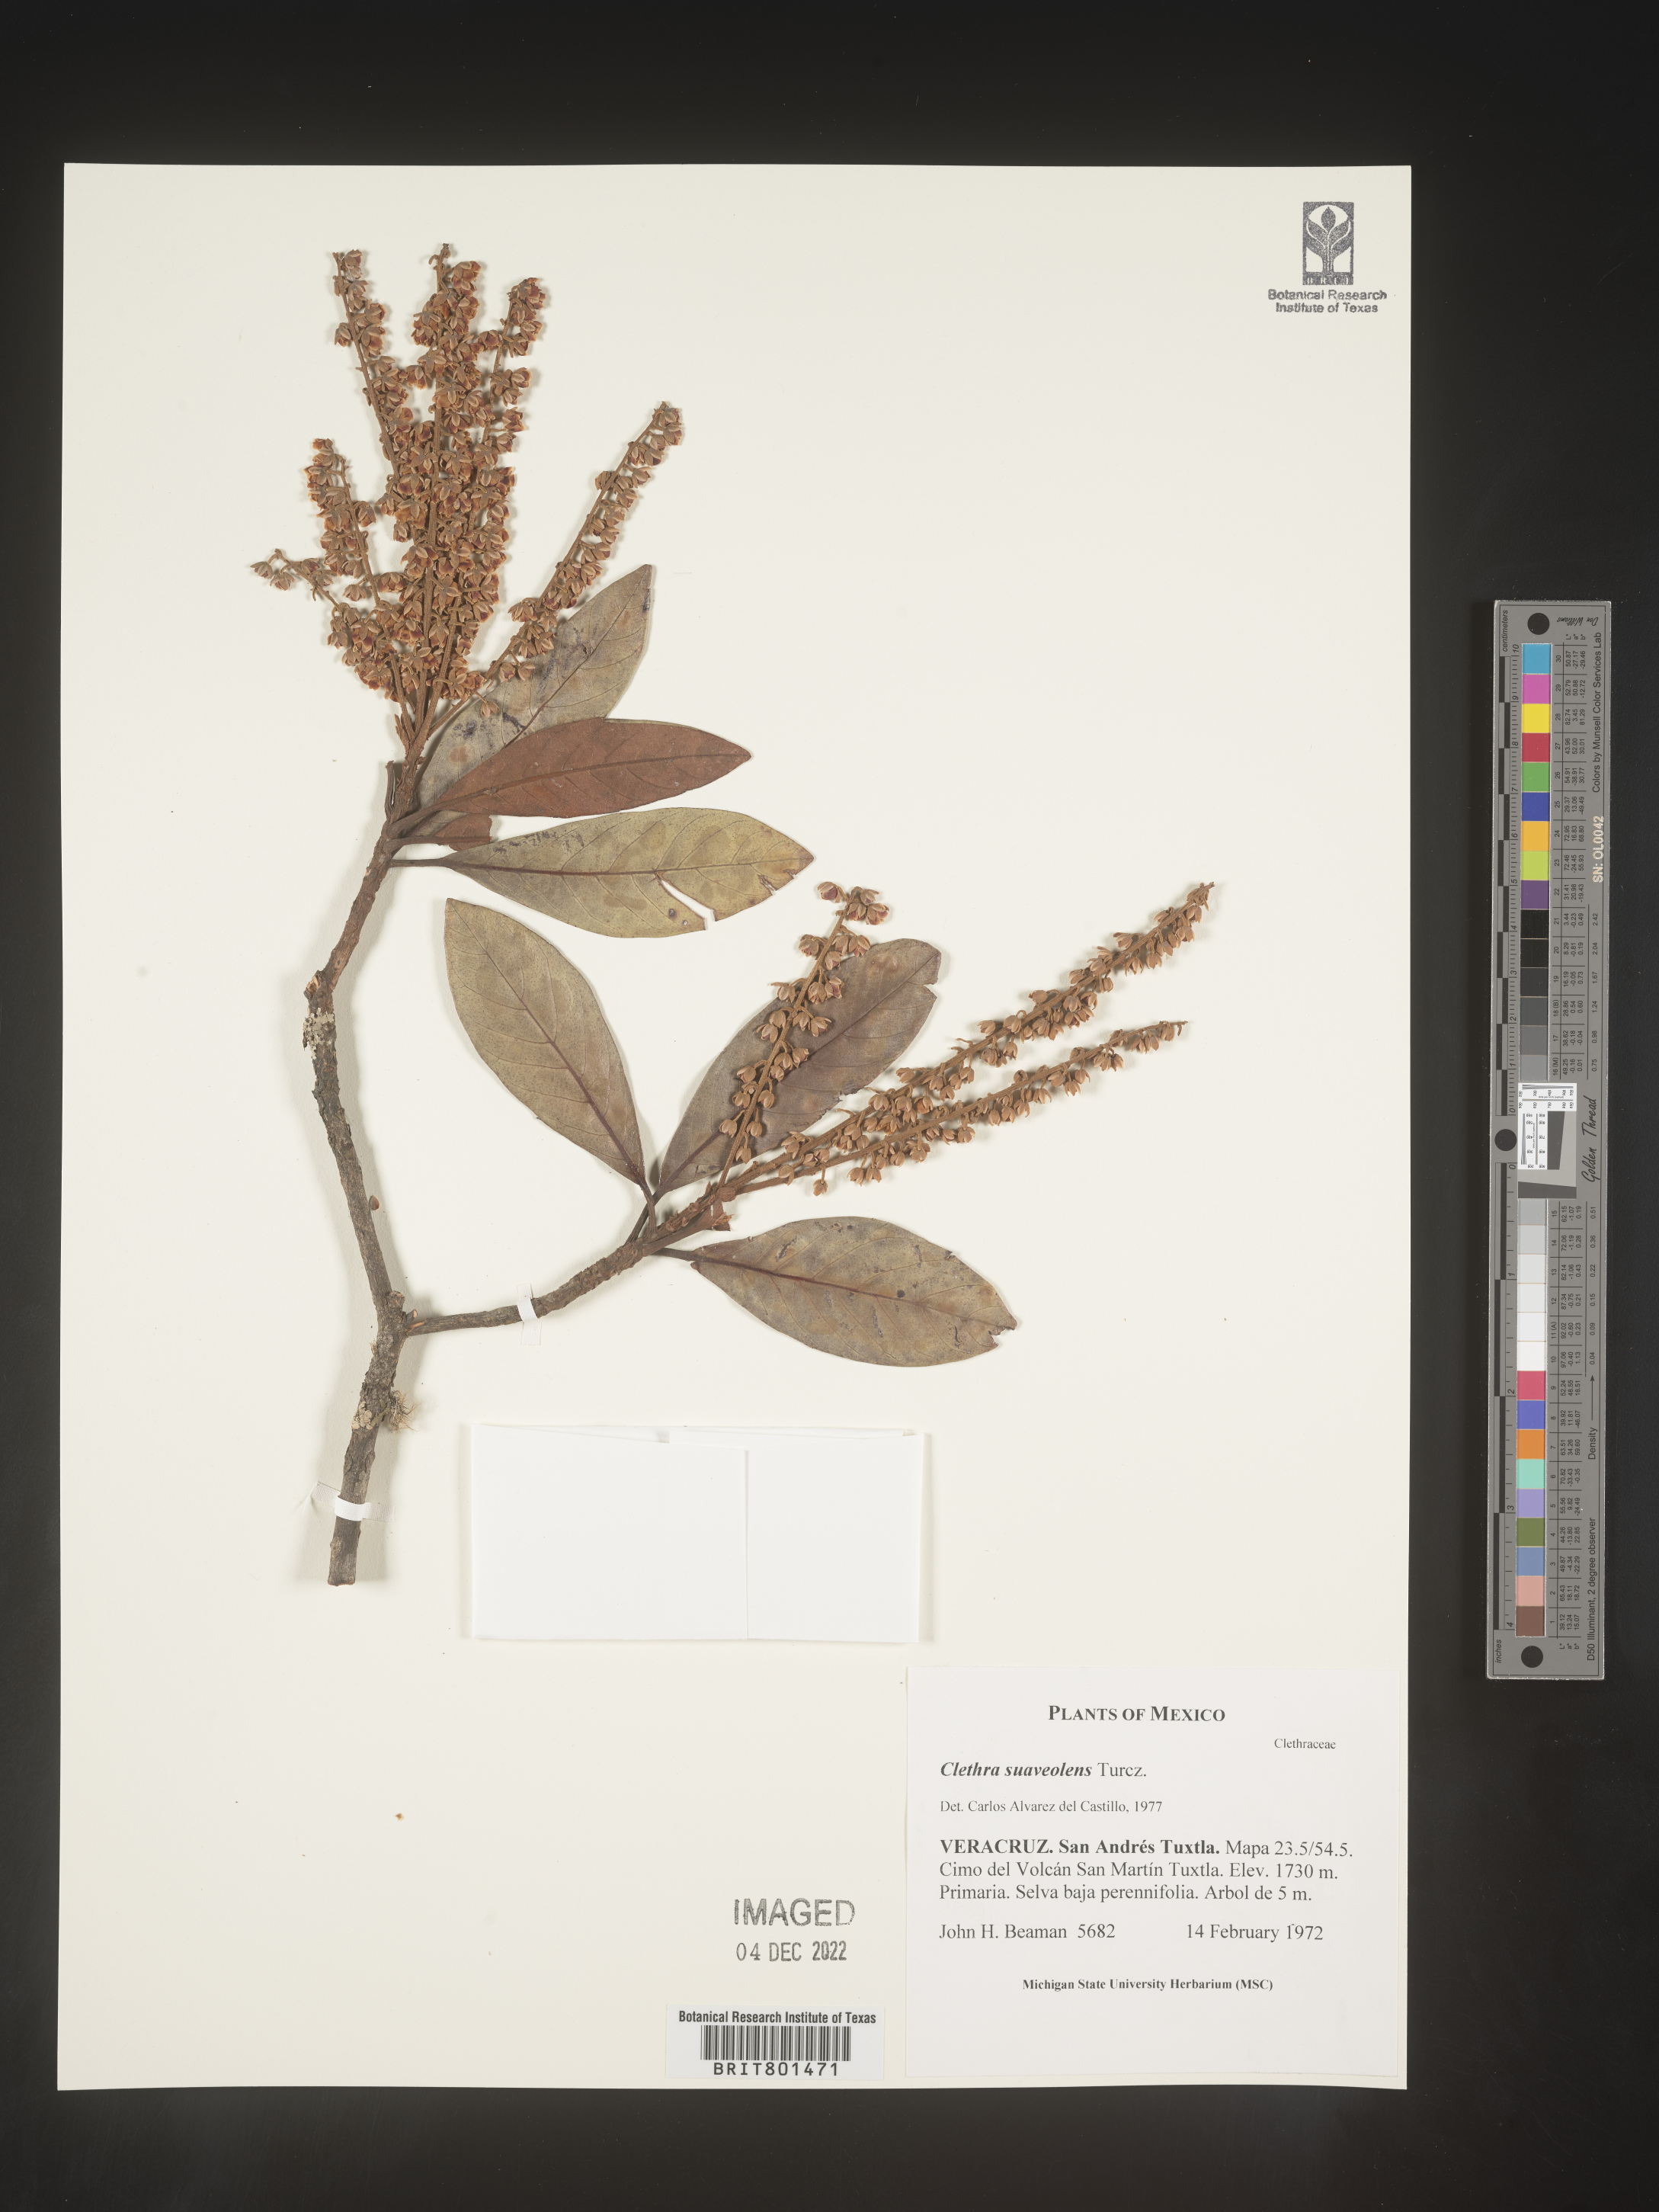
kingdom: Plantae
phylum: Tracheophyta
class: Magnoliopsida
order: Ericales
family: Clethraceae
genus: Clethra
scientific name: Clethra
